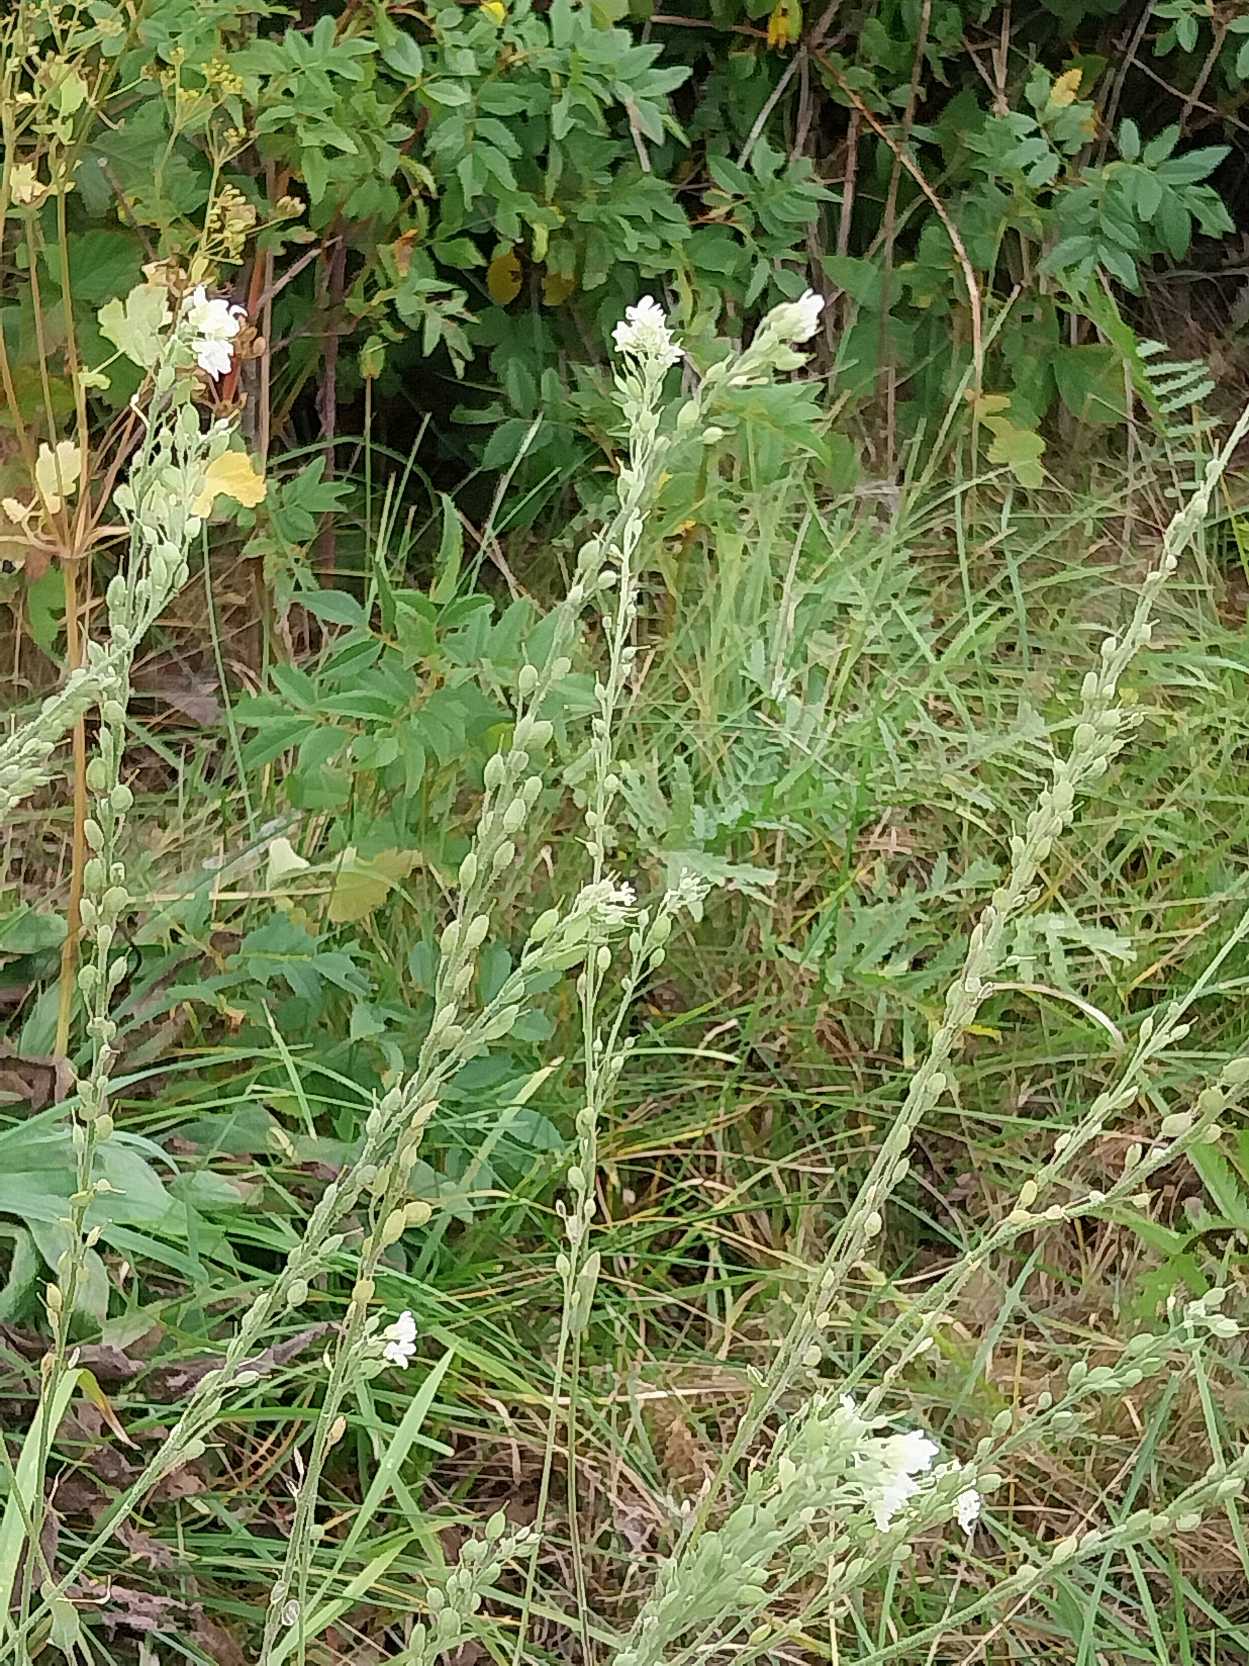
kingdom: Plantae
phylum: Tracheophyta
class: Magnoliopsida
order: Brassicales
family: Brassicaceae
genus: Berteroa
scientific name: Berteroa incana
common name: Kløvplade
